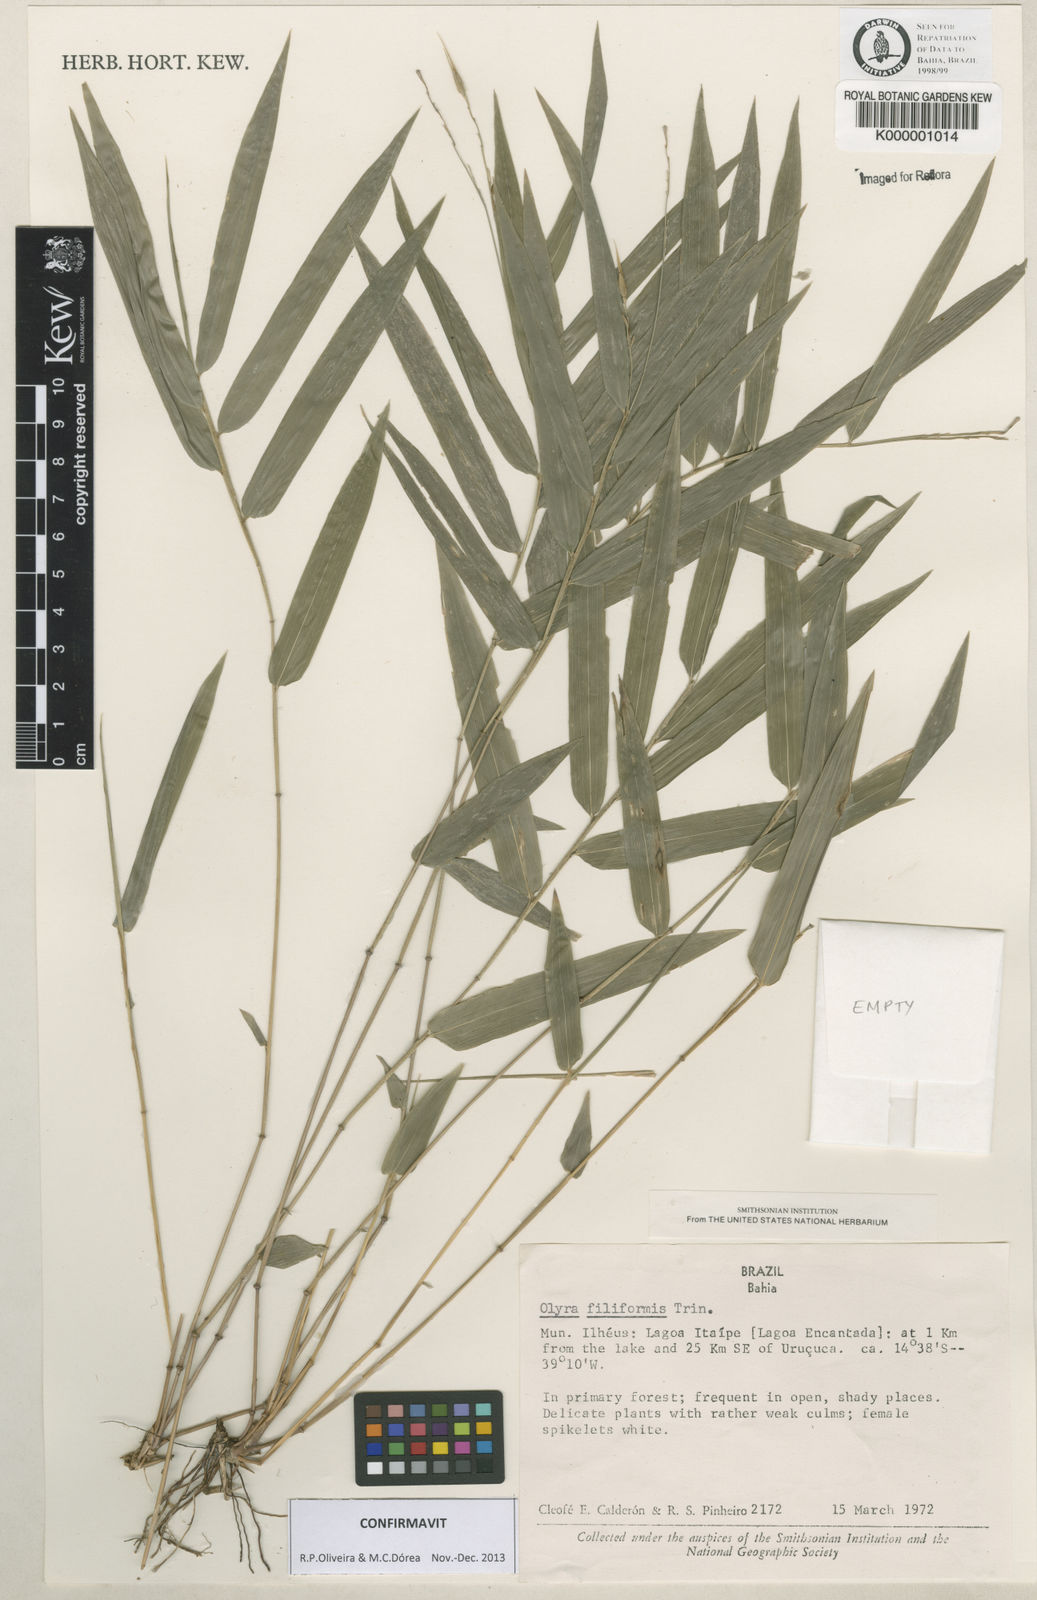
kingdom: Plantae
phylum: Tracheophyta
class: Liliopsida
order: Poales
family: Poaceae
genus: Olyra
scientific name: Olyra filiformis
